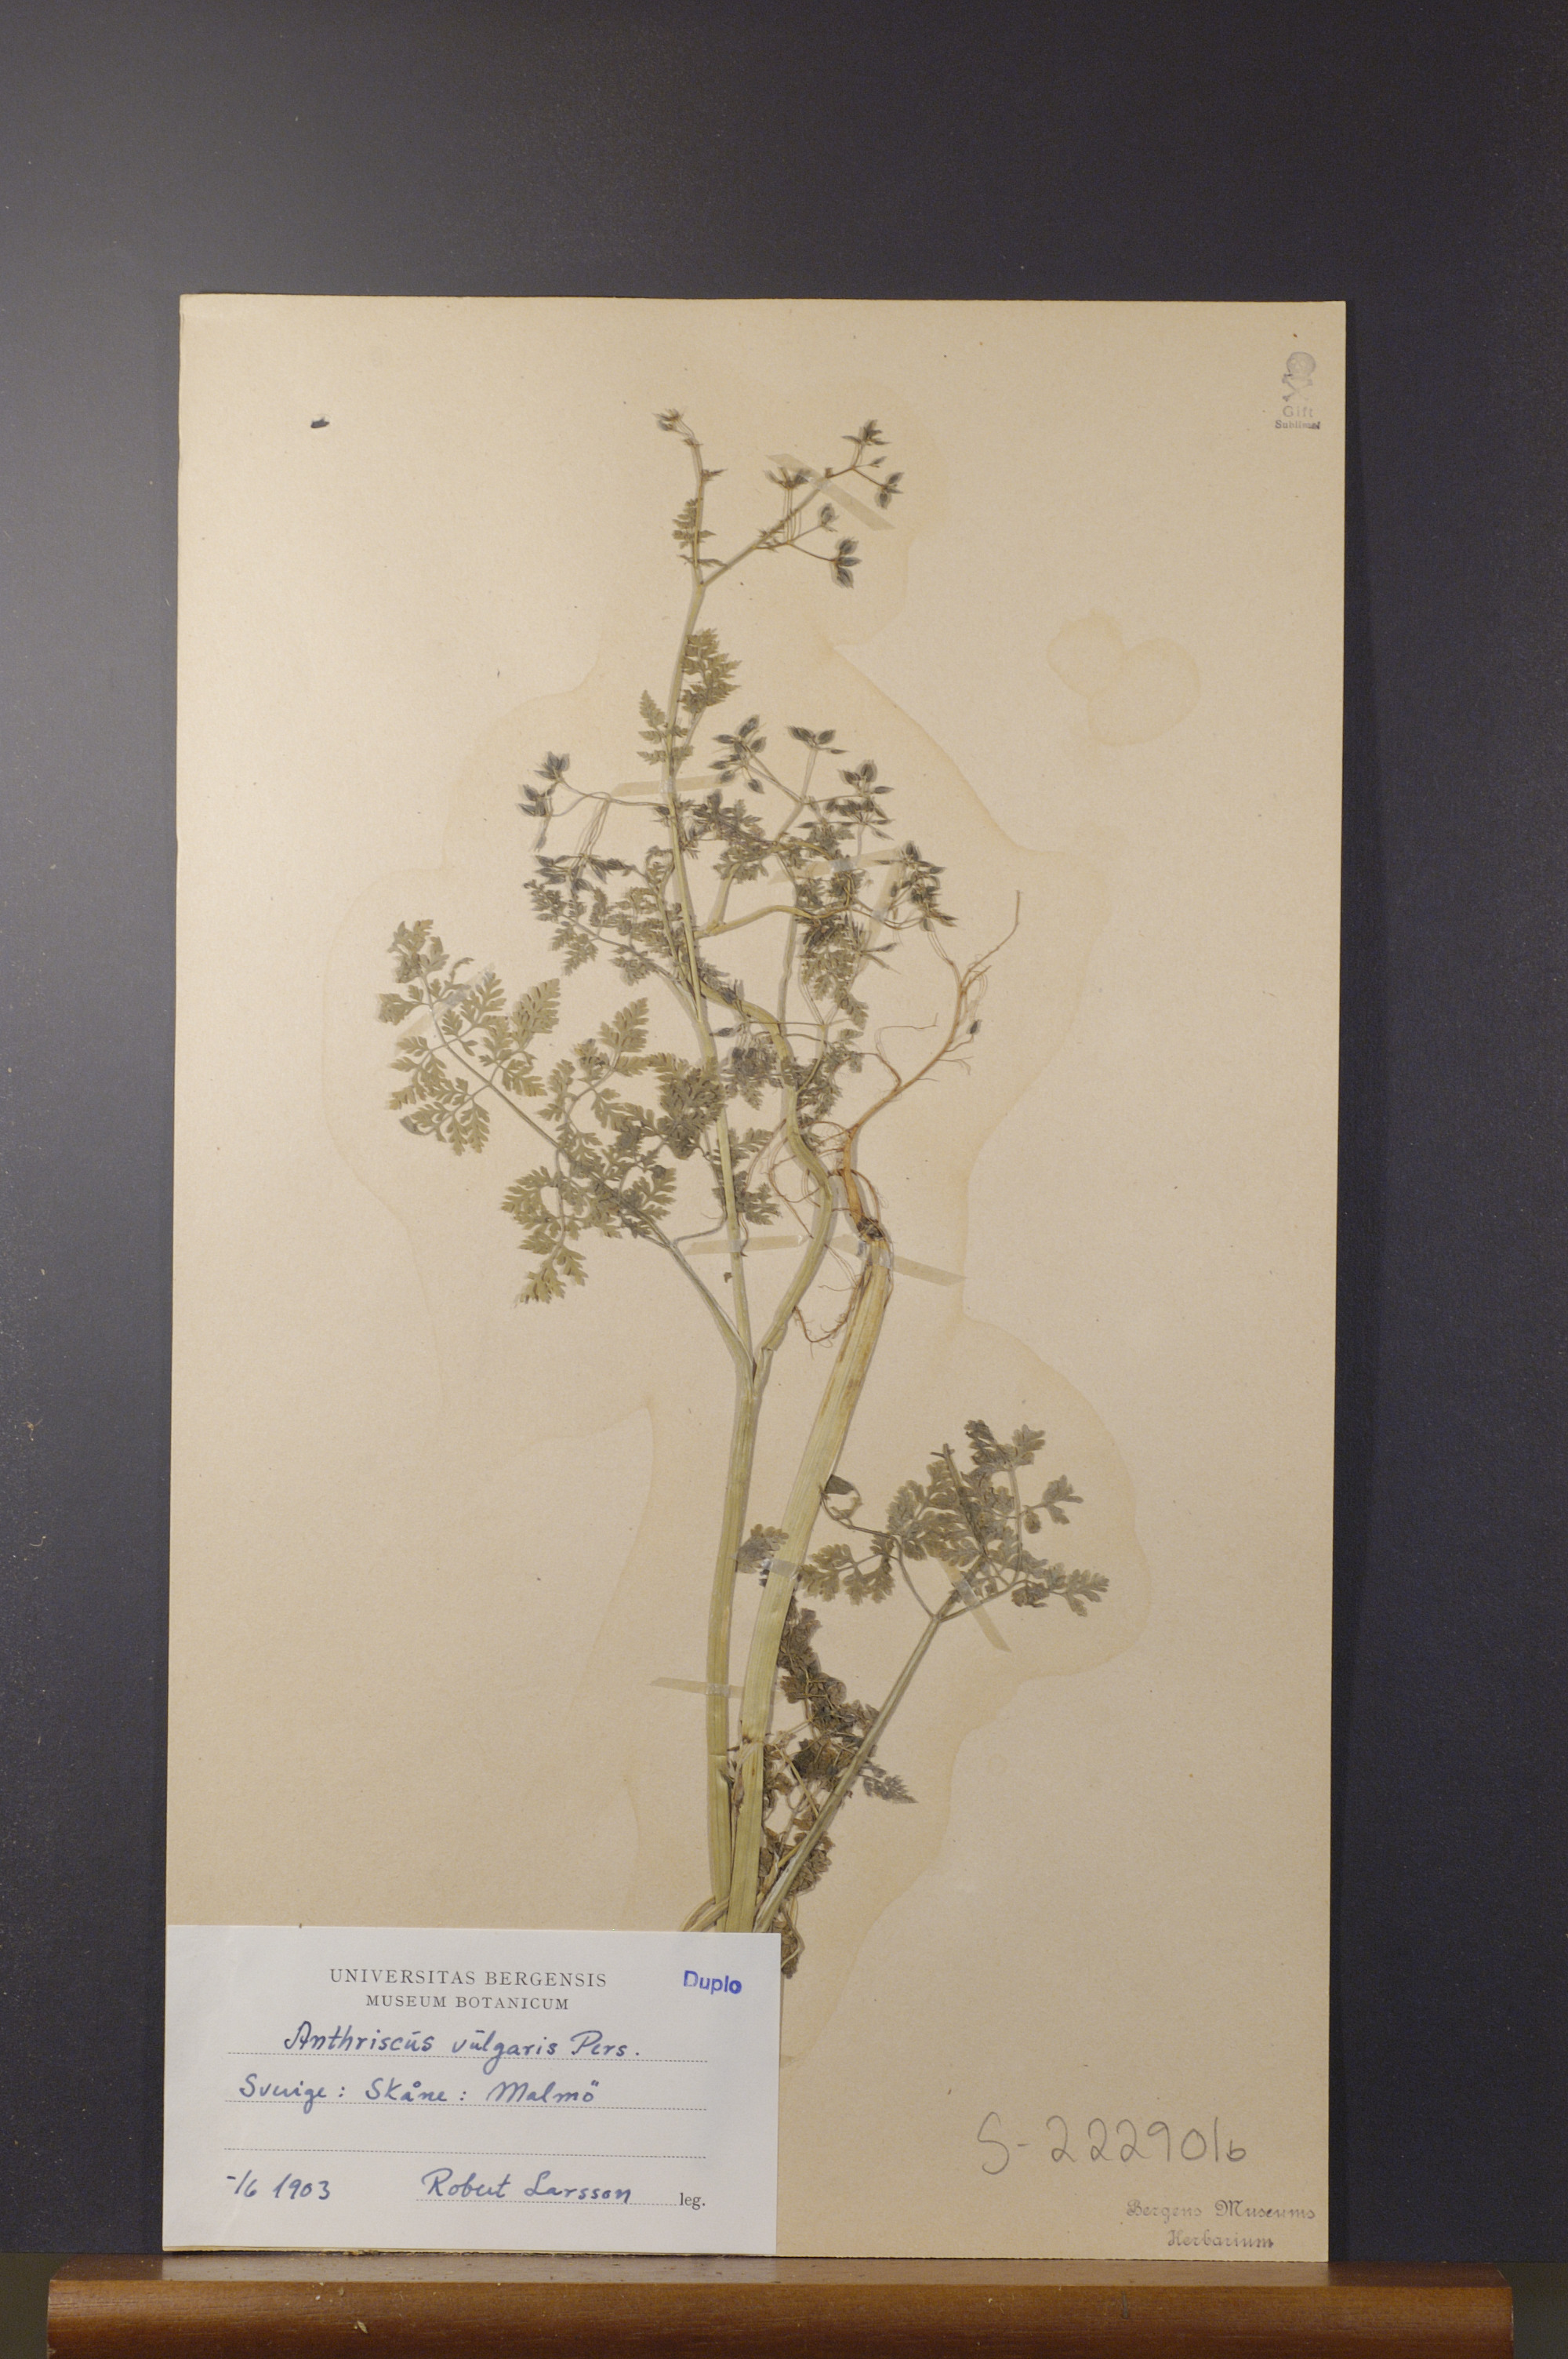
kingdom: Plantae
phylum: Tracheophyta
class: Magnoliopsida
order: Apiales
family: Apiaceae
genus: Anthriscus
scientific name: Anthriscus caucalis
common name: Bur chervil
